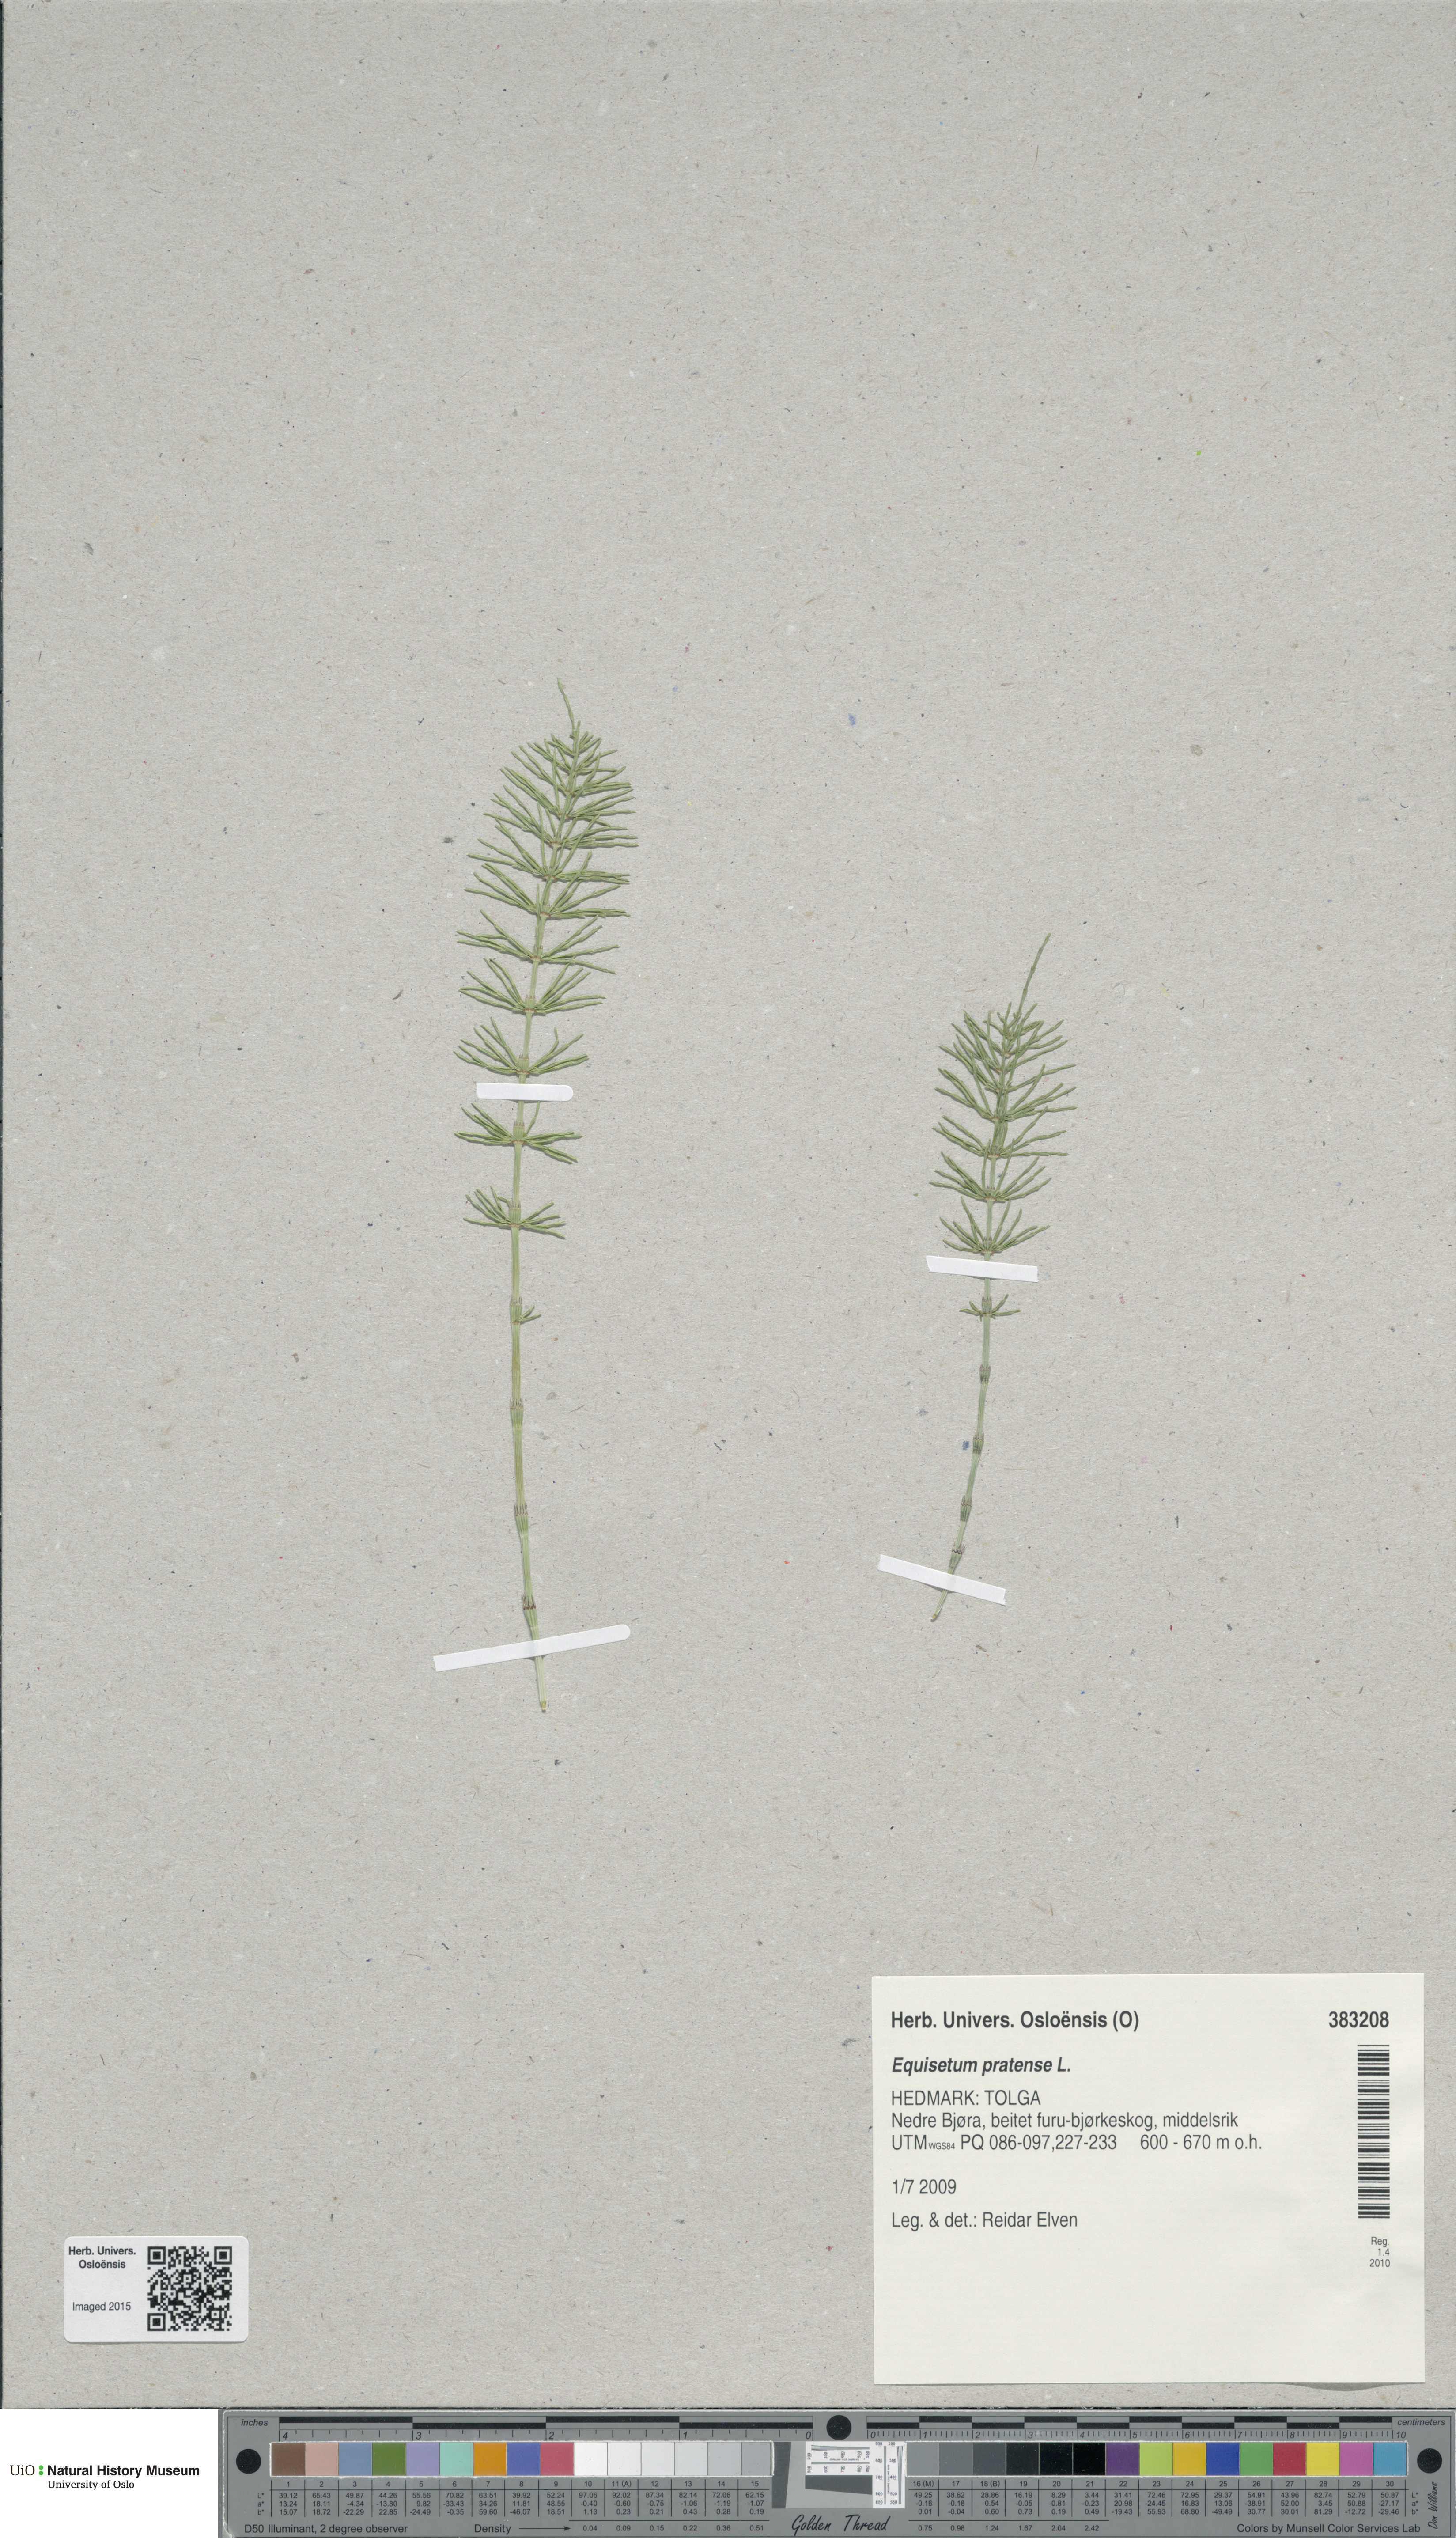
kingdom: Plantae
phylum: Tracheophyta
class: Polypodiopsida
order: Equisetales
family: Equisetaceae
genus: Equisetum
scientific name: Equisetum pratense
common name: Meadow horsetail
